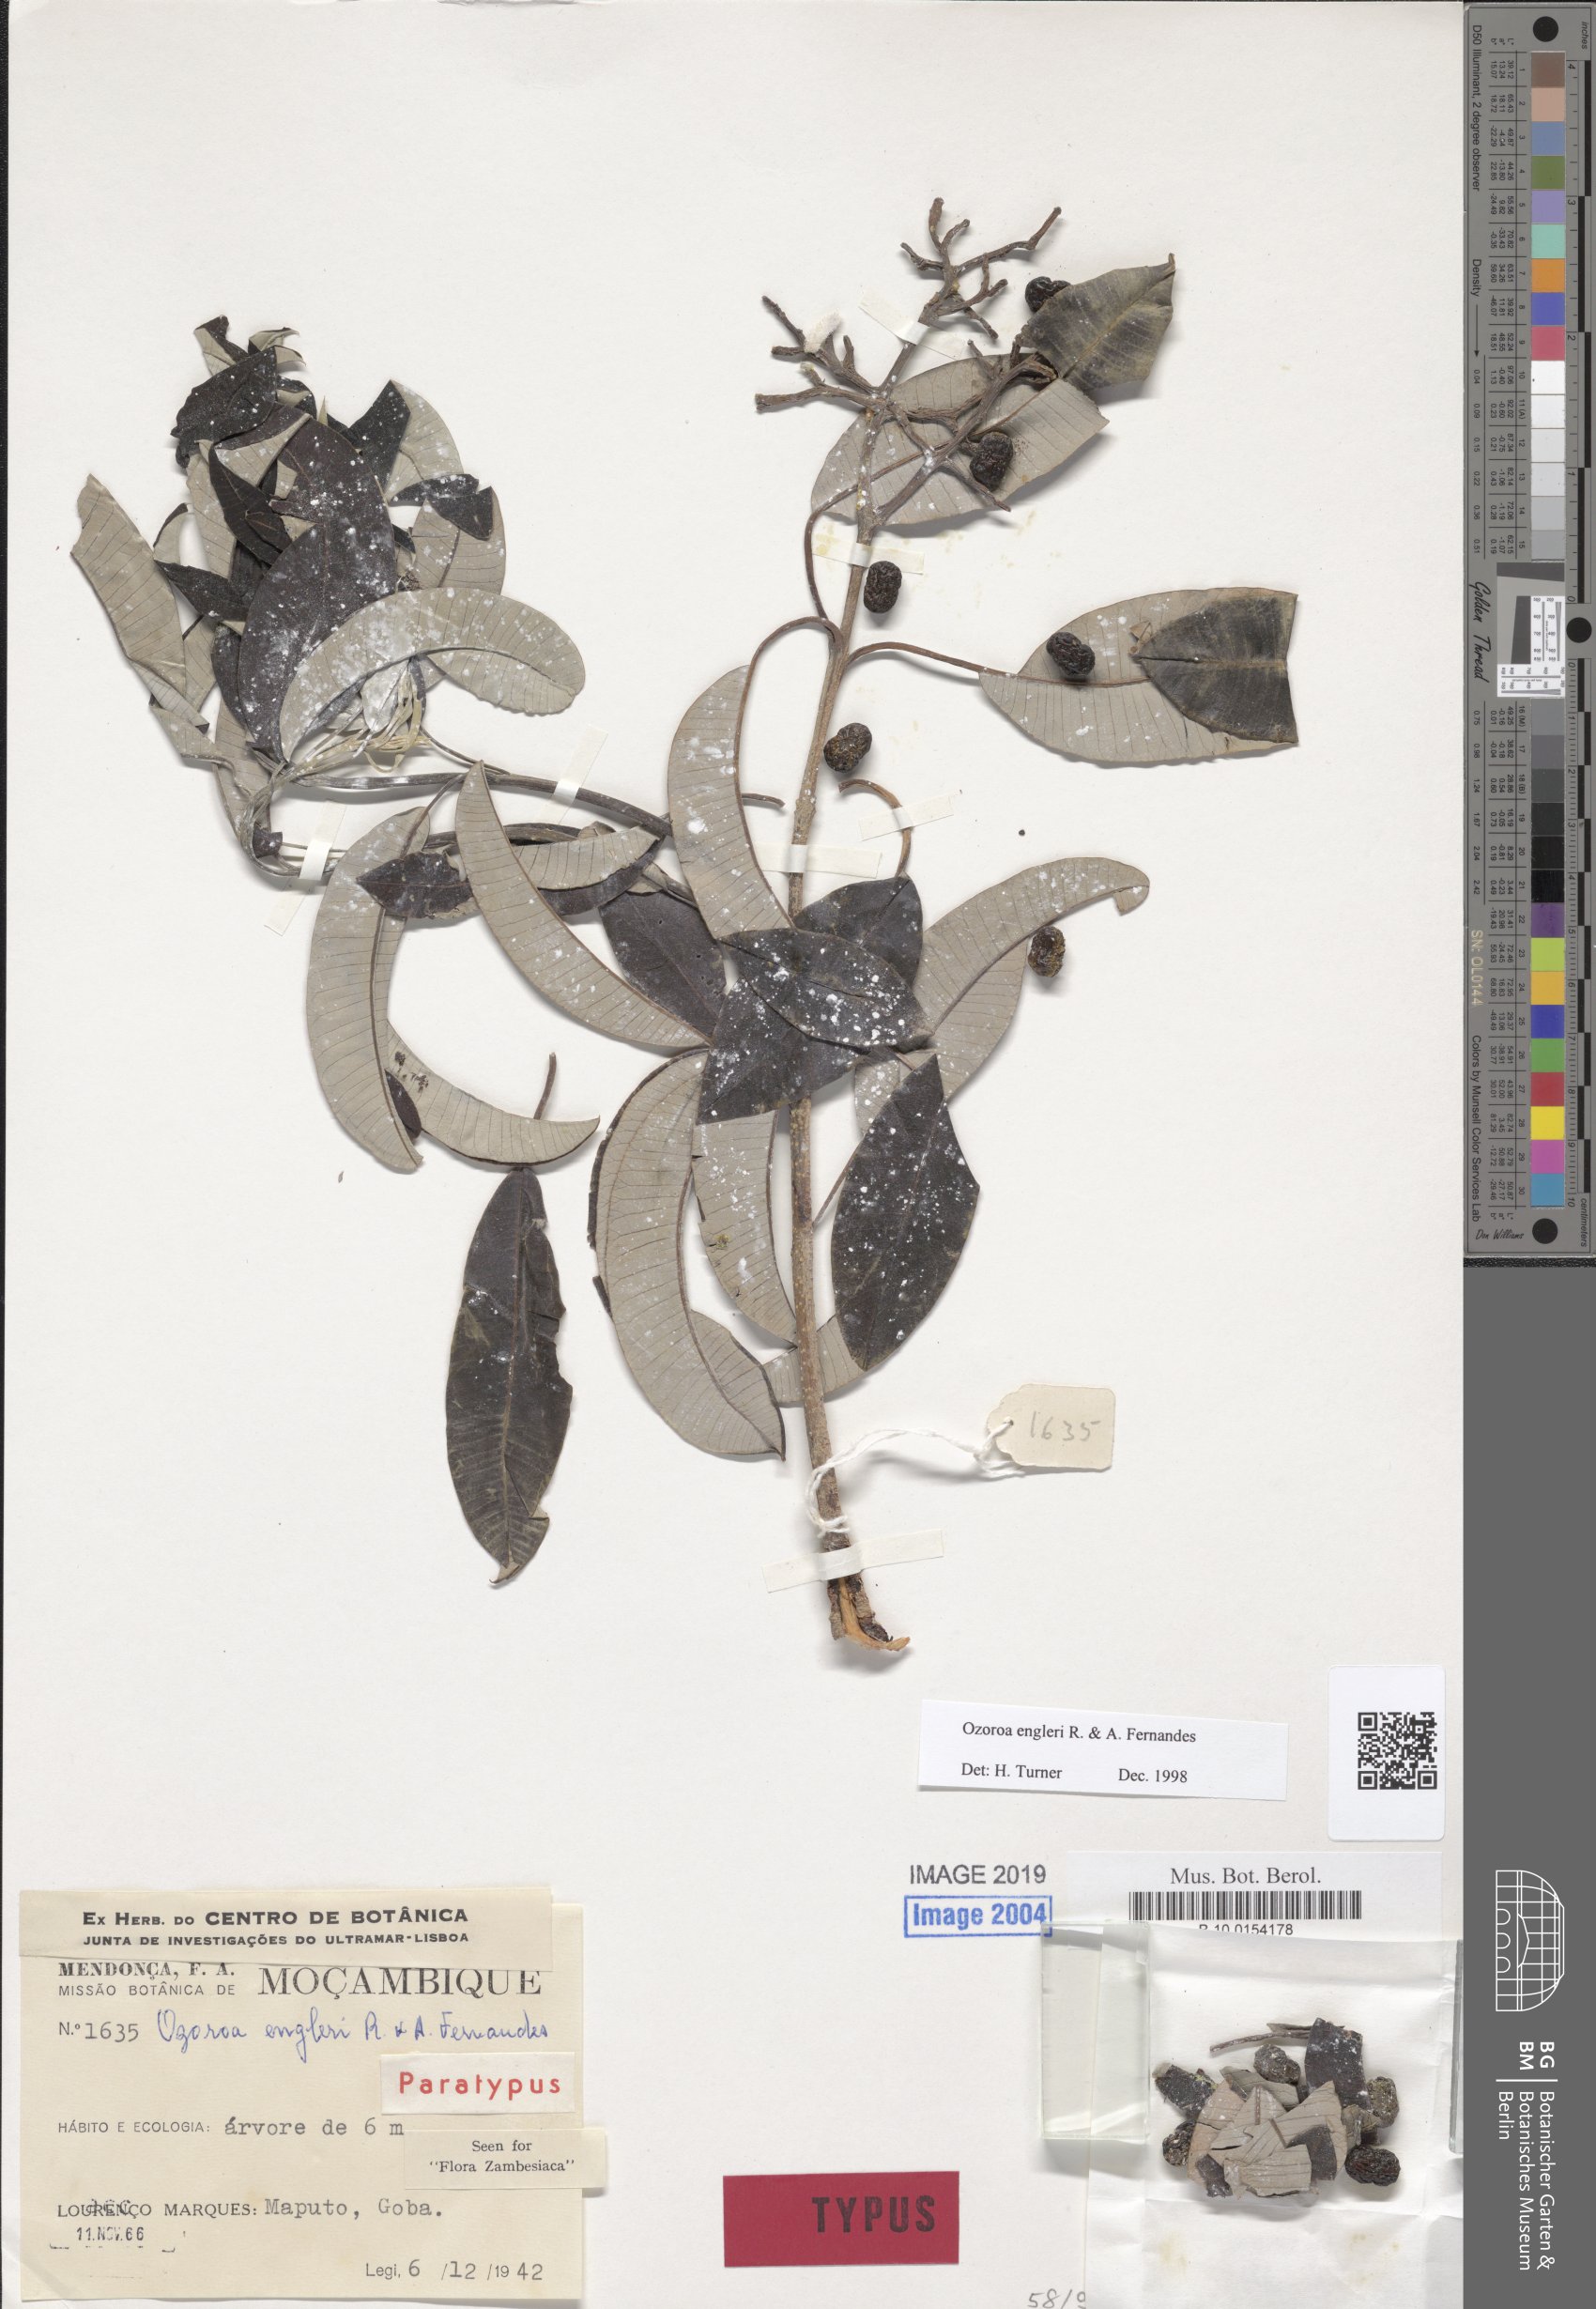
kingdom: Plantae
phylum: Tracheophyta
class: Magnoliopsida
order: Sapindales
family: Anacardiaceae
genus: Ozoroa
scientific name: Ozoroa engleri
